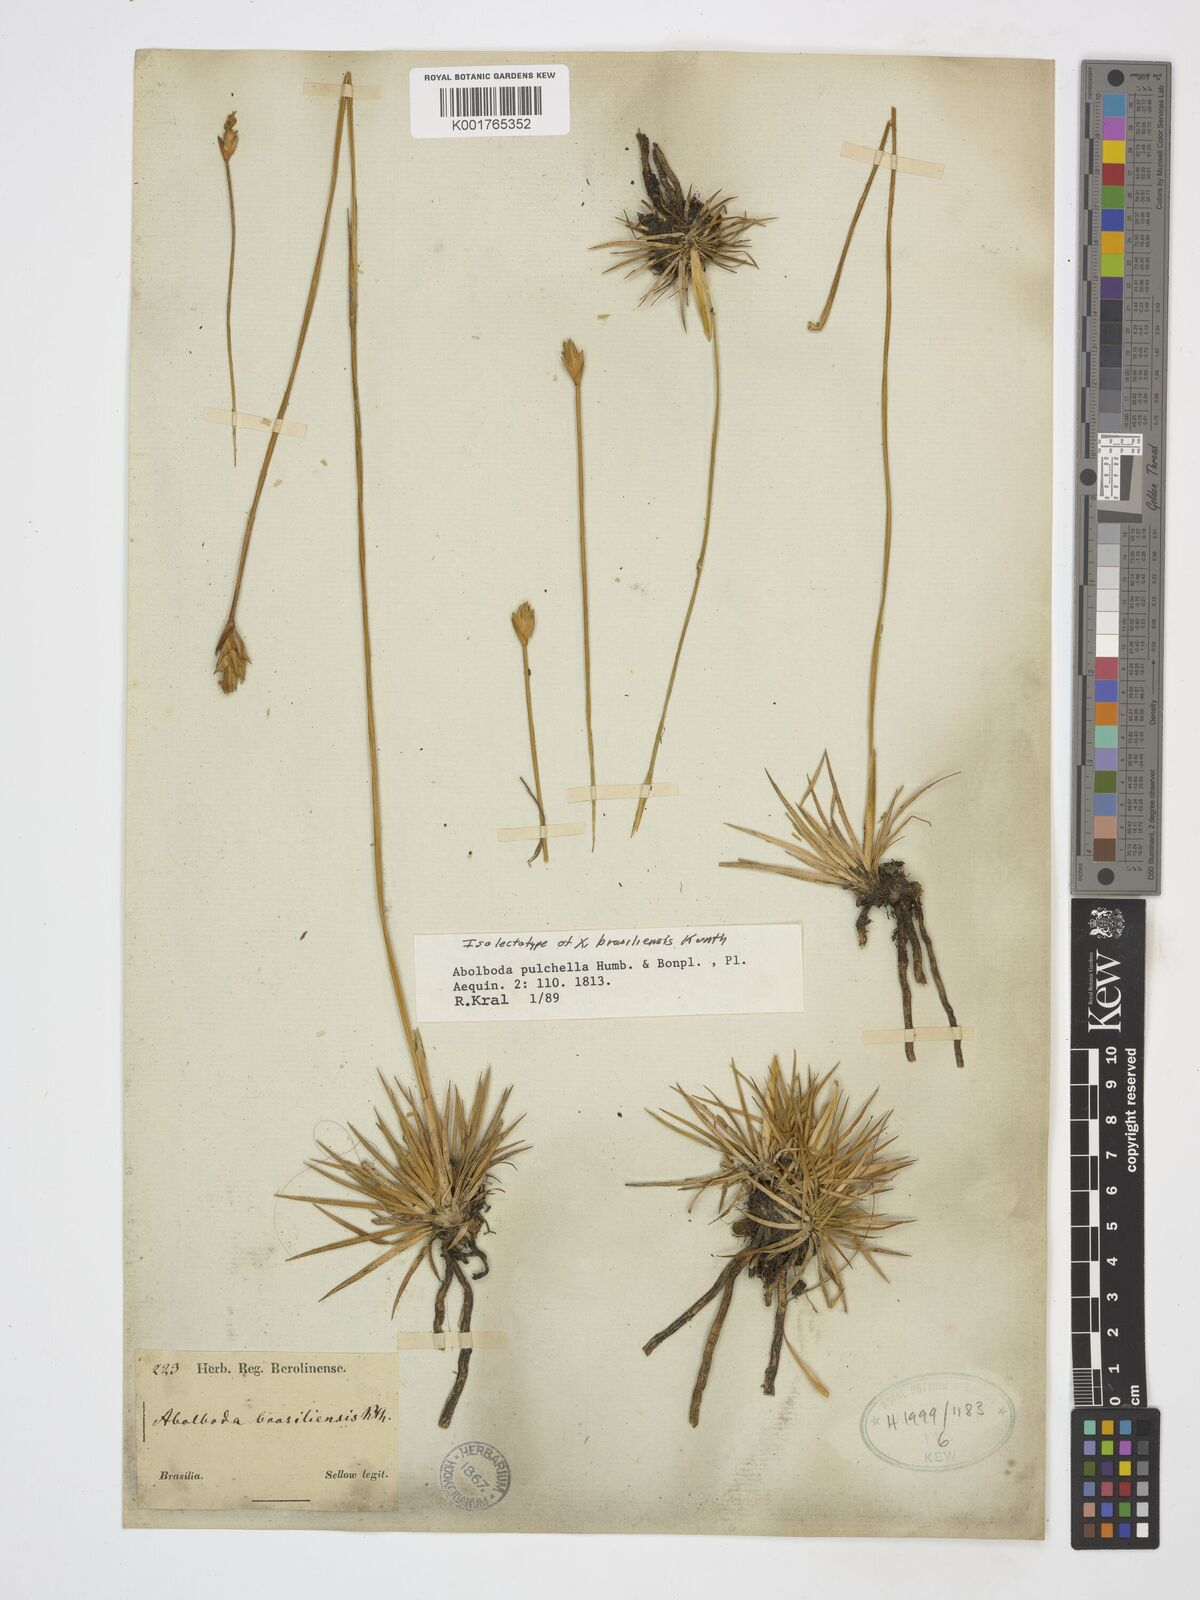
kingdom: Plantae
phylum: Tracheophyta
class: Liliopsida
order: Poales
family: Xyridaceae
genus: Abolboda
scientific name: Abolboda pulchella
